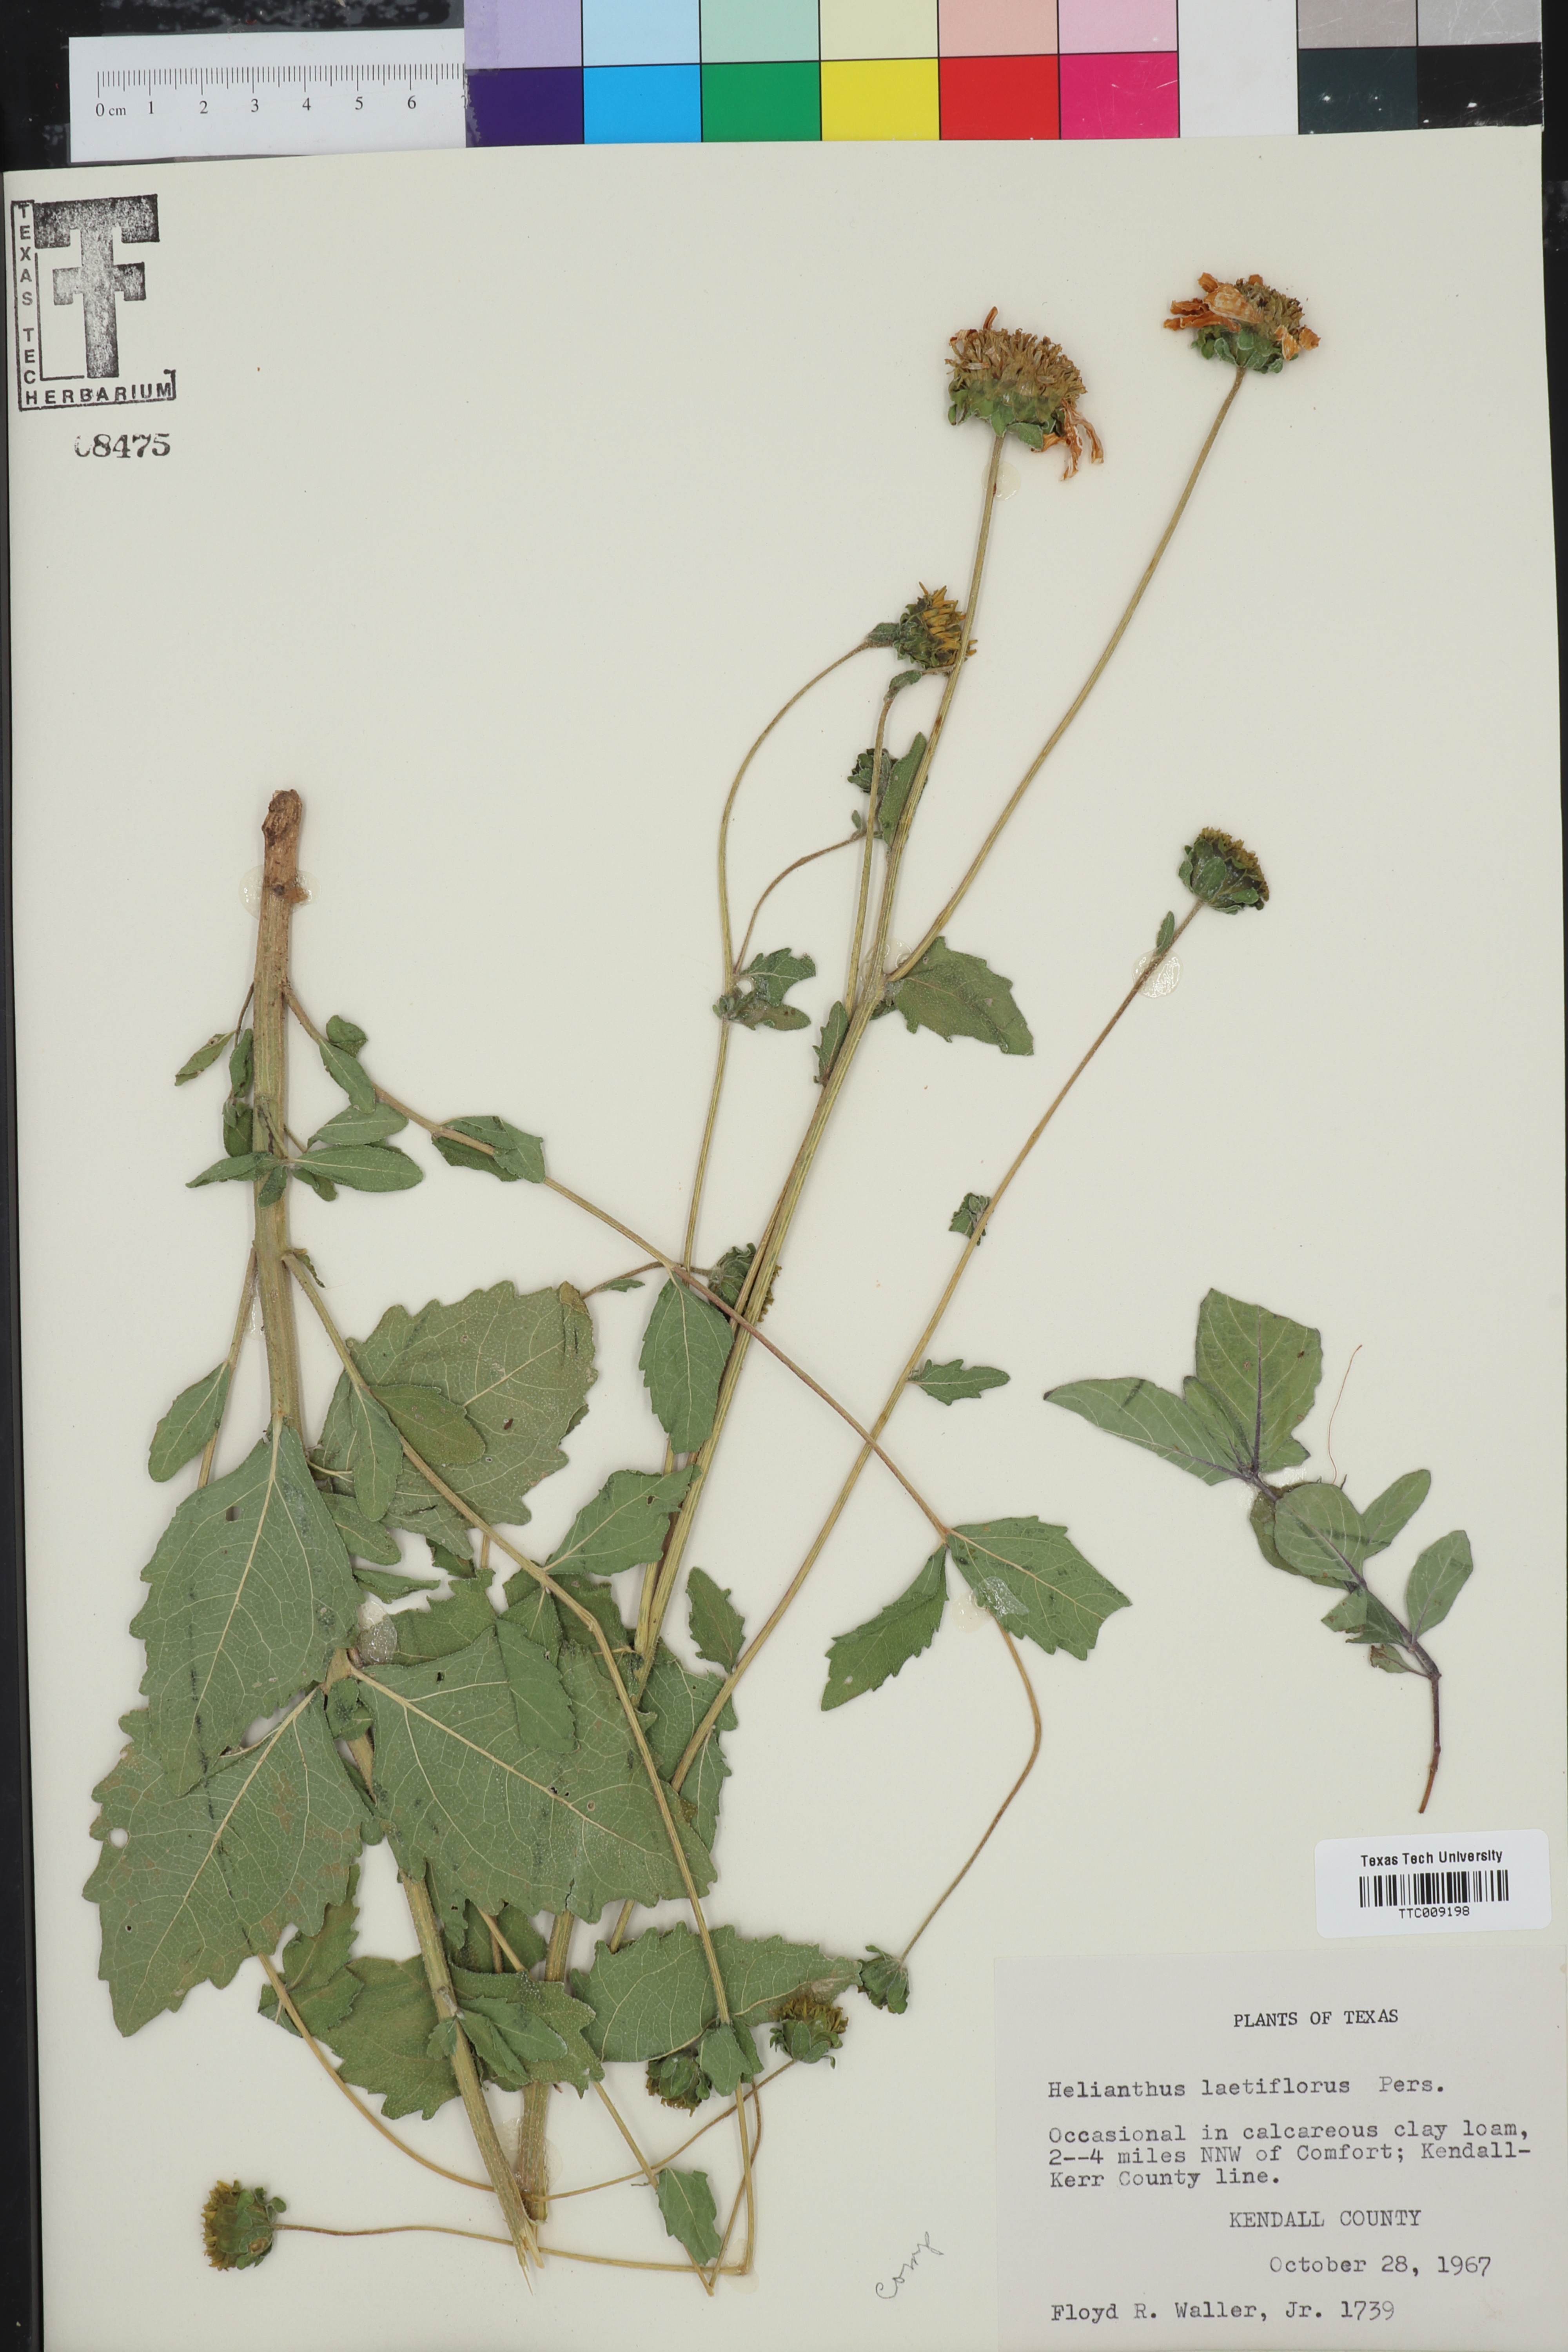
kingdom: Plantae
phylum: Tracheophyta
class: Magnoliopsida
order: Asterales
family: Asteraceae
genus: Helianthus
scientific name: Helianthus laetiflorus
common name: Perennial sunflower
